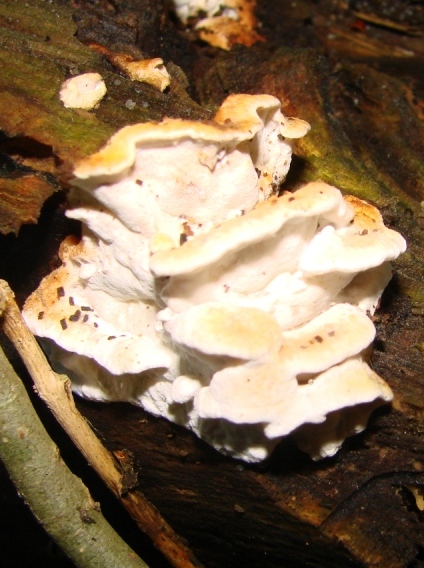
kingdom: Fungi
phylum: Basidiomycota
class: Agaricomycetes
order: Polyporales
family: Incrustoporiaceae
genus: Skeletocutis
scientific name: Skeletocutis nemoralis
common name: stor krystalporesvamp
